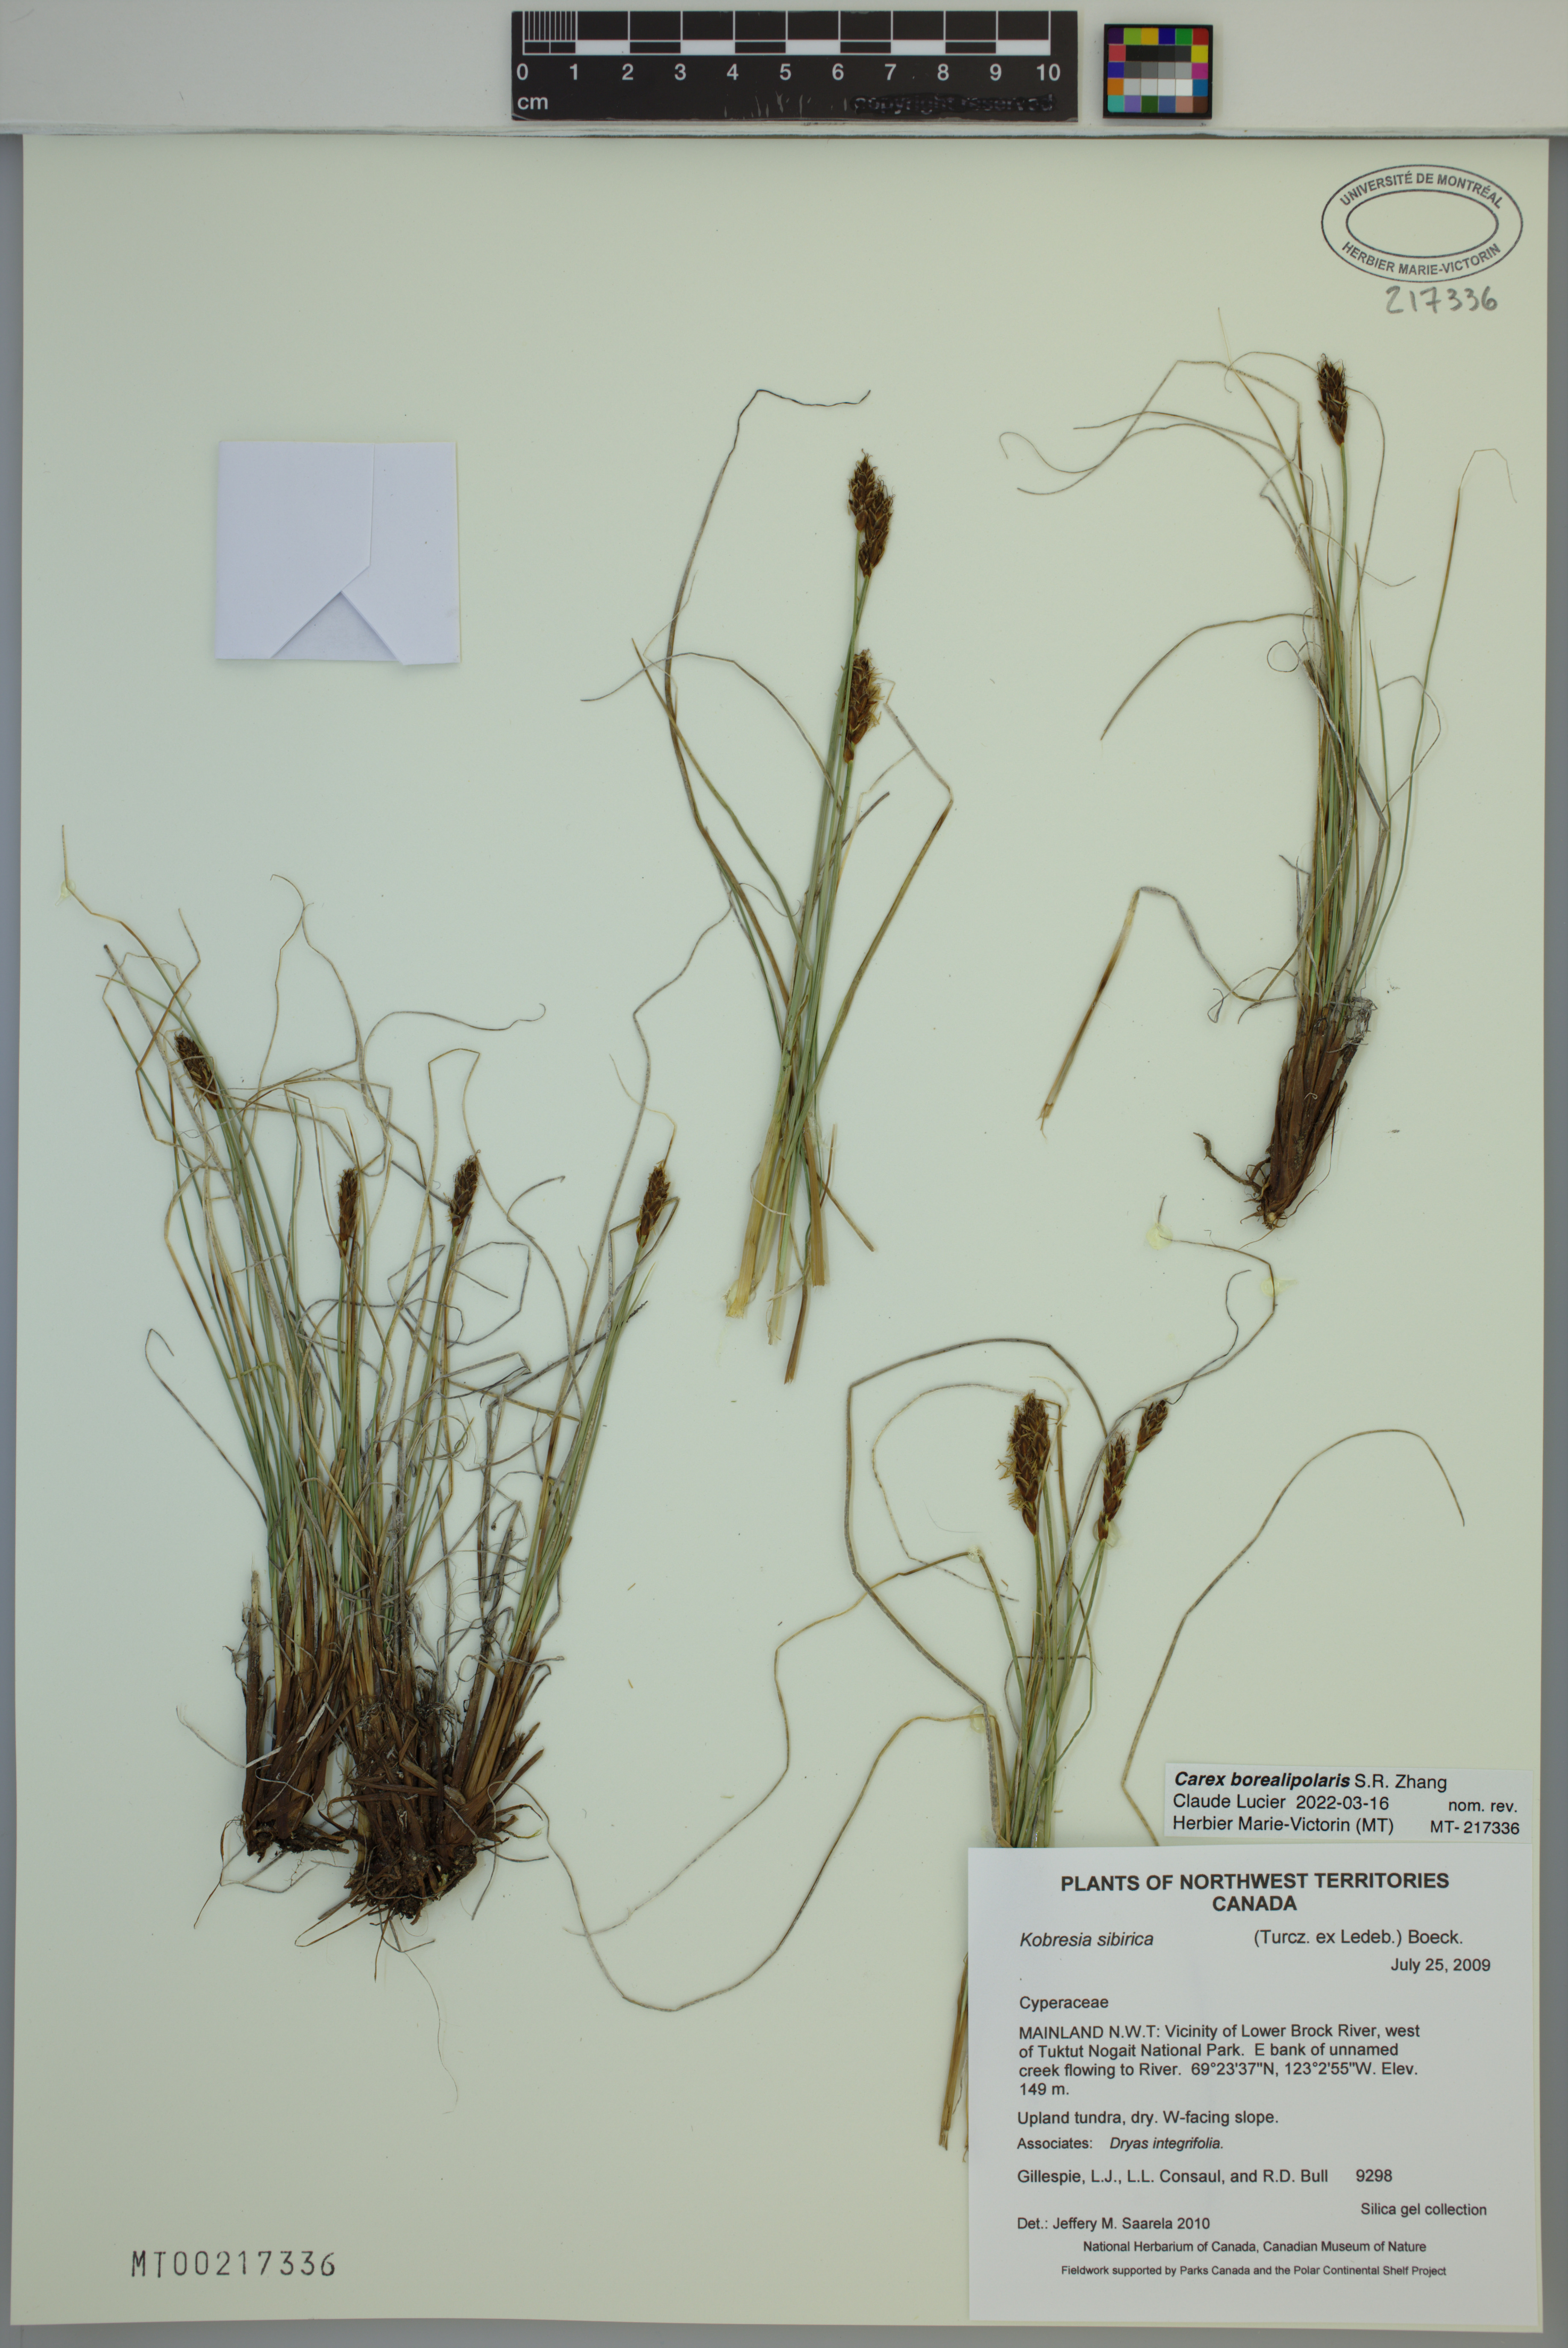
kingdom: Plantae
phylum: Tracheophyta
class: Liliopsida
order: Poales
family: Cyperaceae
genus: Carex
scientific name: Carex borealipolaris
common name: Siberian bog sedge
